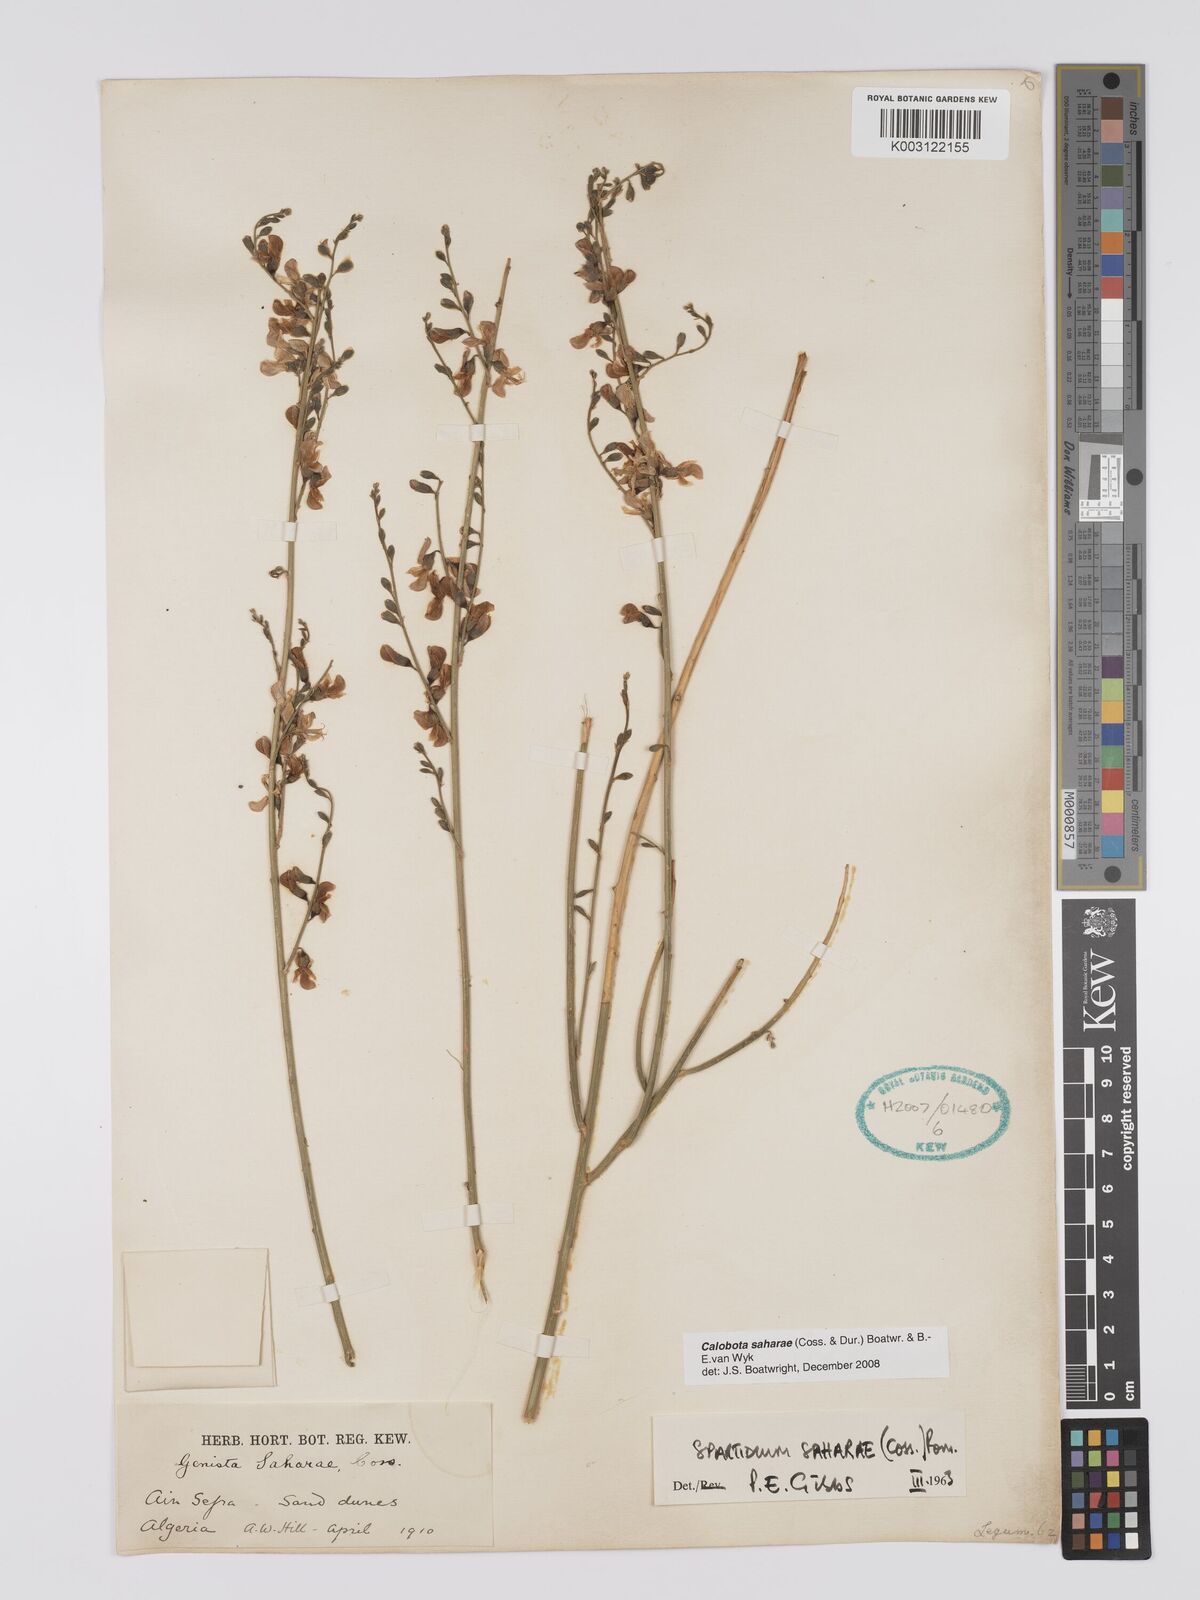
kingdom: Plantae
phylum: Tracheophyta
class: Magnoliopsida
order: Fabales
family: Fabaceae
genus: Calobota
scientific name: Calobota saharae
